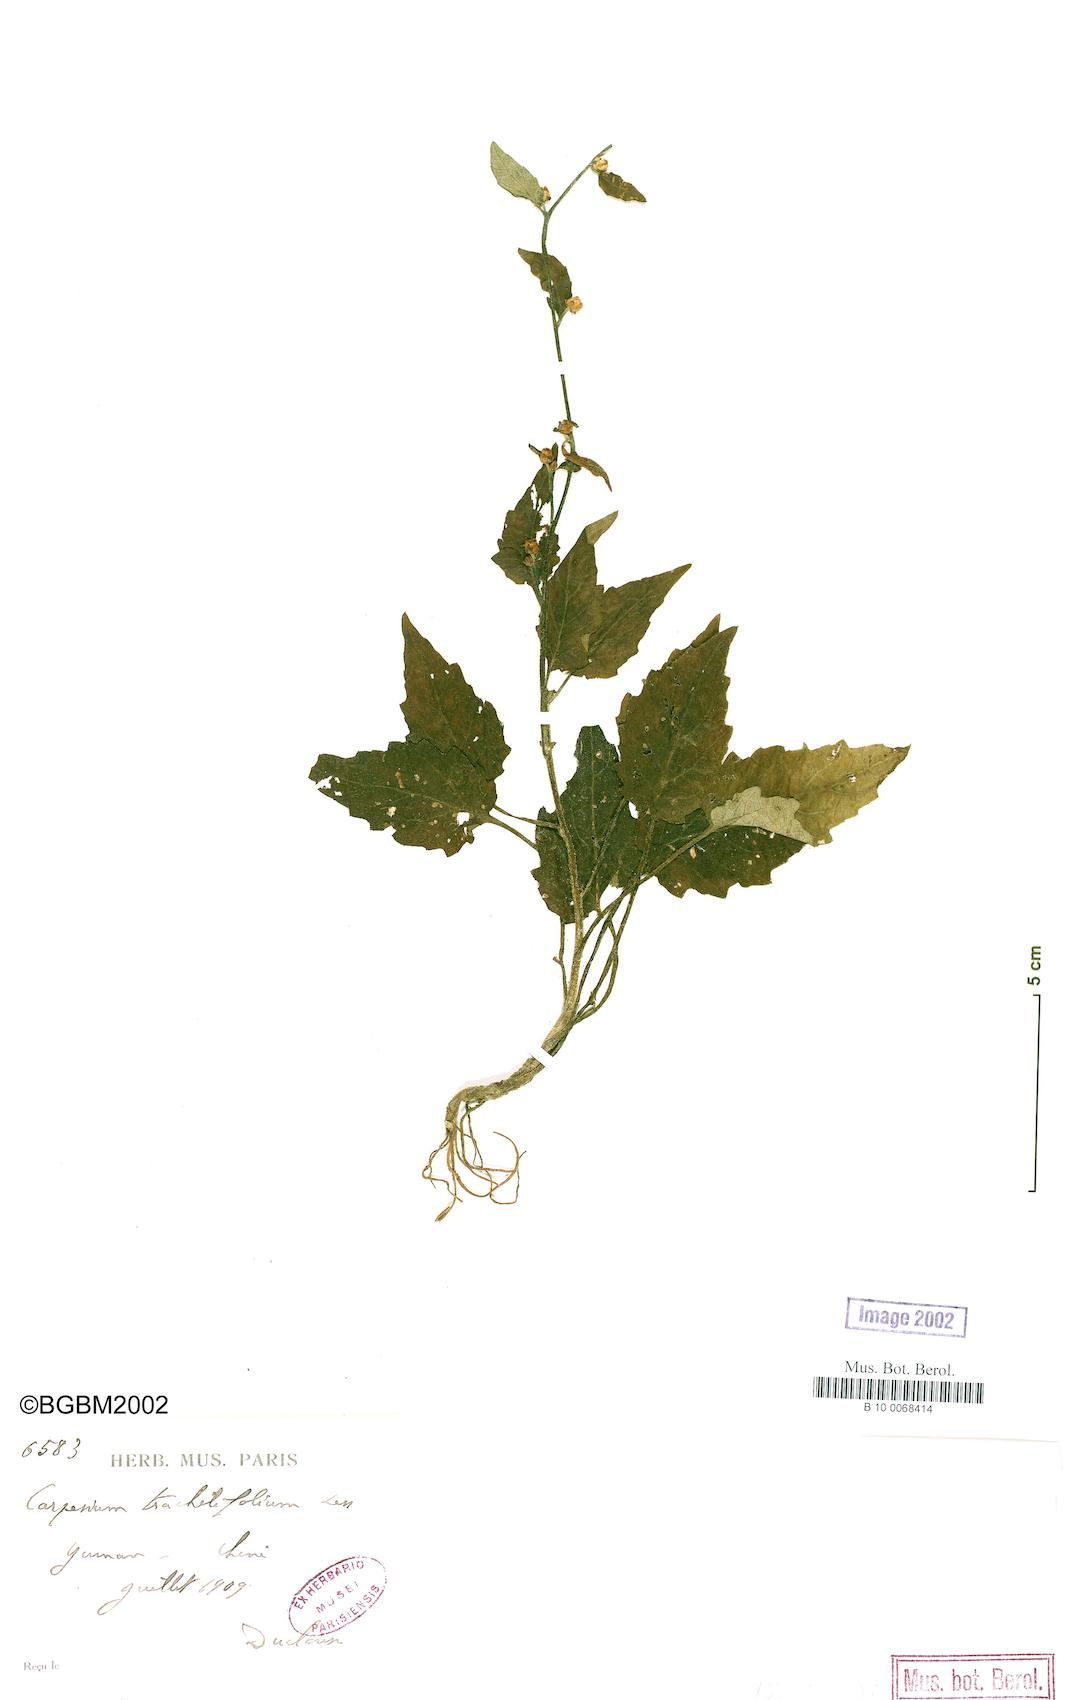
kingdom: Plantae
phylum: Tracheophyta
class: Magnoliopsida
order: Asterales
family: Asteraceae
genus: Carpesium
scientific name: Carpesium trachelifolium
